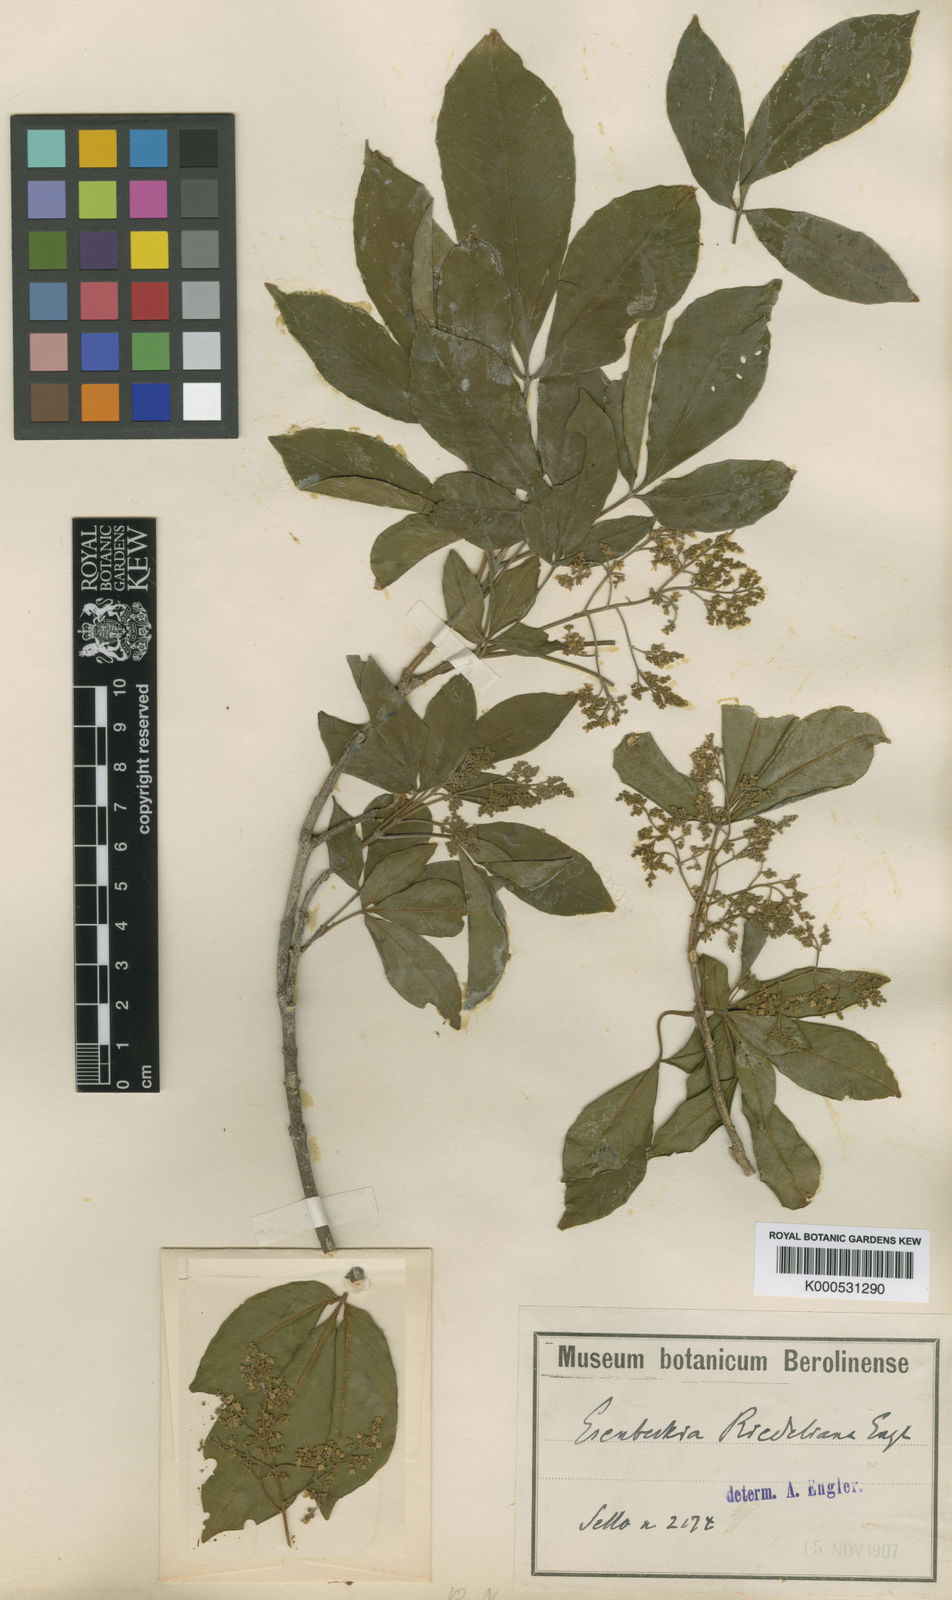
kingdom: Plantae
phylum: Tracheophyta
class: Magnoliopsida
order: Sapindales
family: Rutaceae
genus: Balfourodendron
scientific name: Balfourodendron riedelianum
